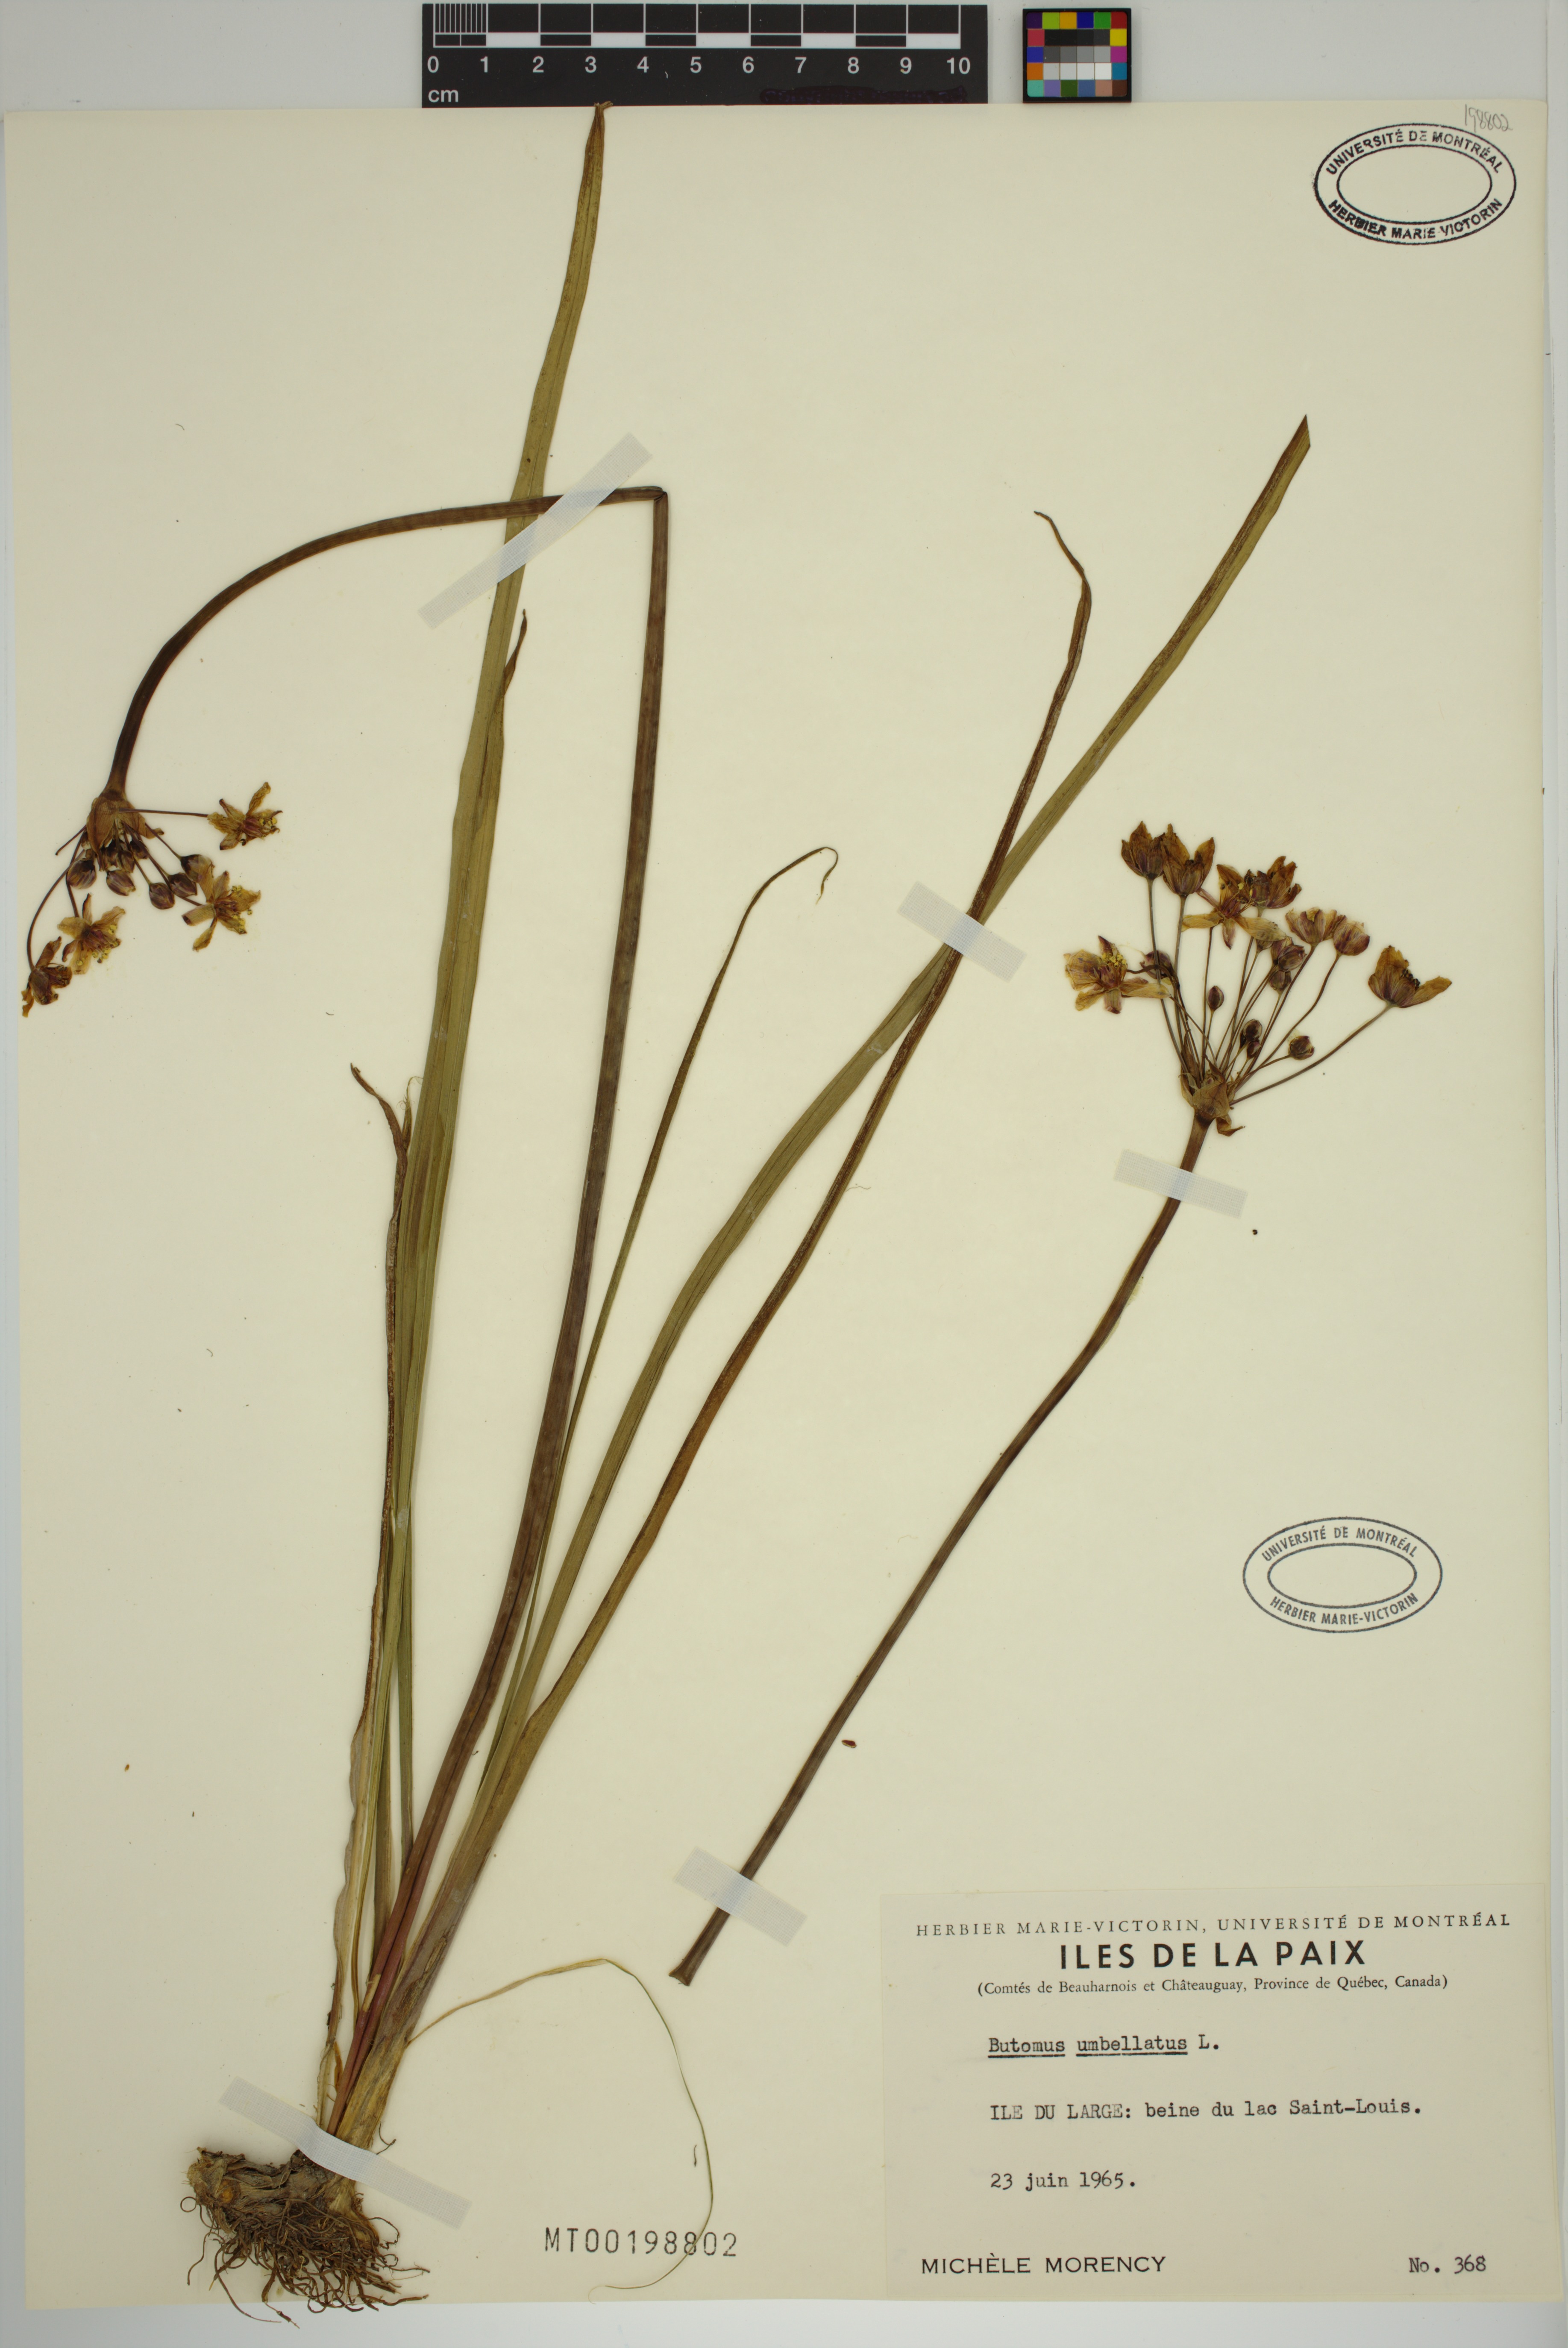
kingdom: Plantae
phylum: Tracheophyta
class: Liliopsida
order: Alismatales
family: Butomaceae
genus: Butomus
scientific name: Butomus umbellatus
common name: Flowering-rush
